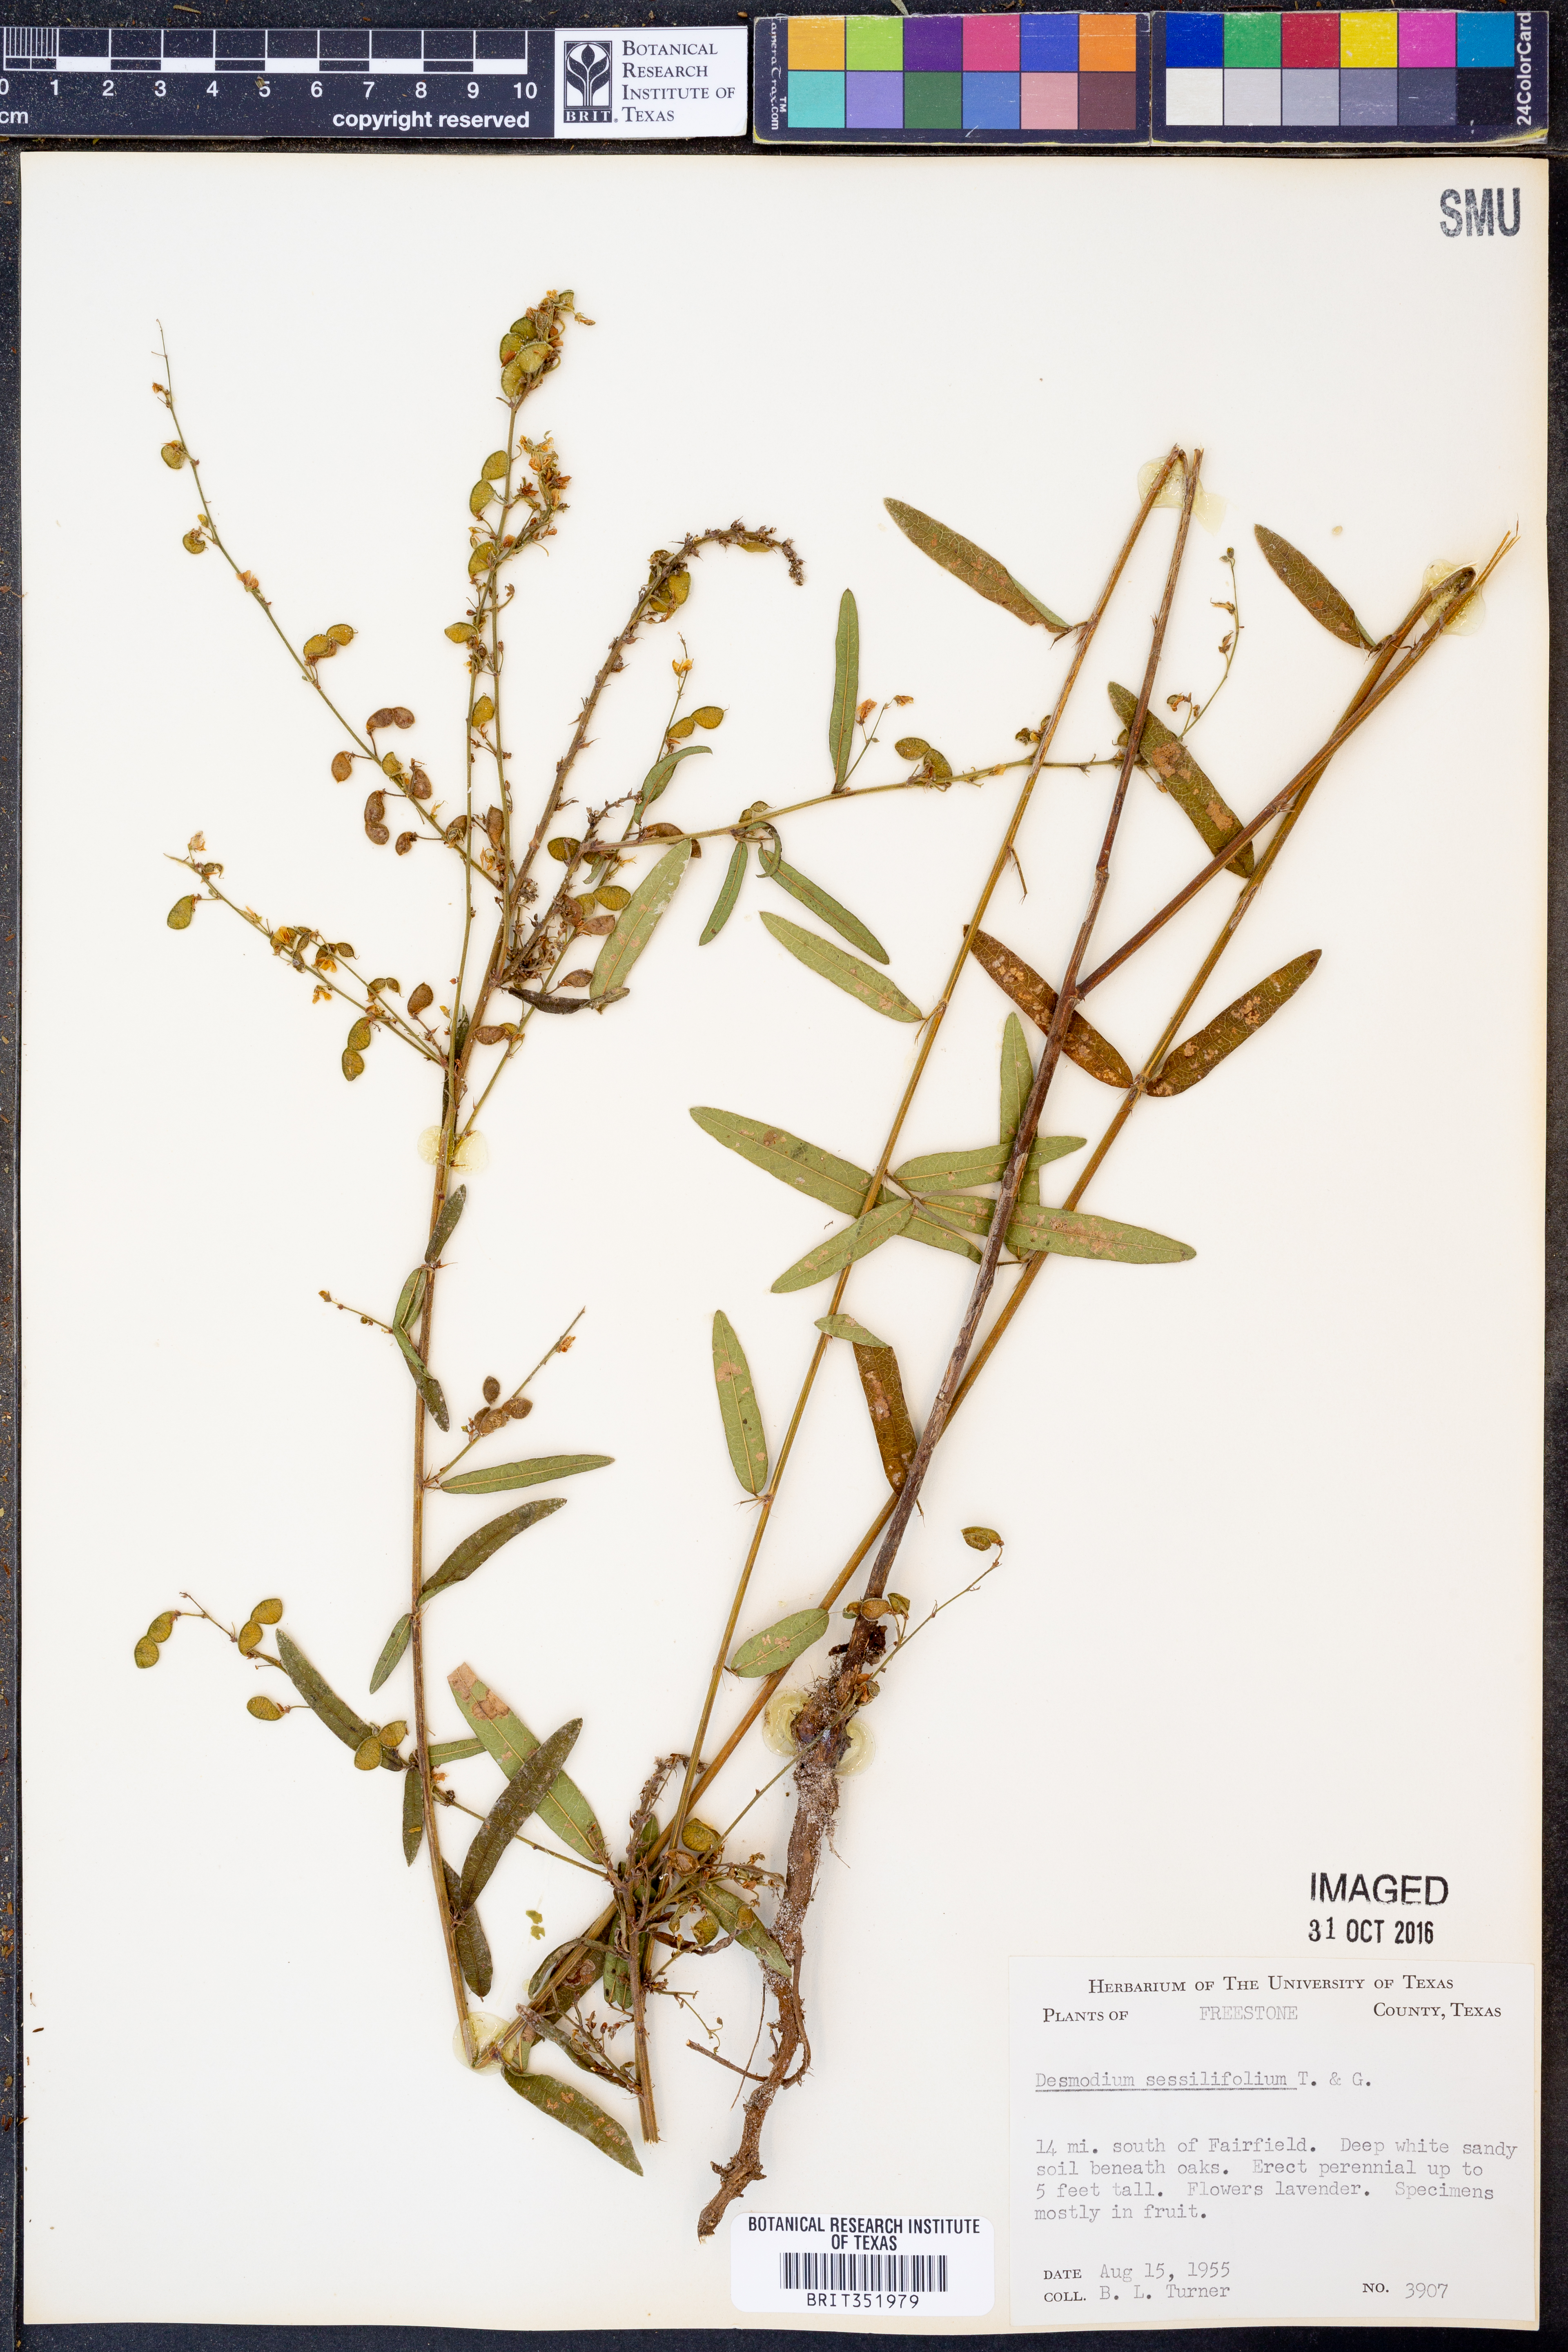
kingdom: Plantae
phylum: Tracheophyta
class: Magnoliopsida
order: Fabales
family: Fabaceae
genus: Desmodium
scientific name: Desmodium sessilifolium
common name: Sessile tick-clover
